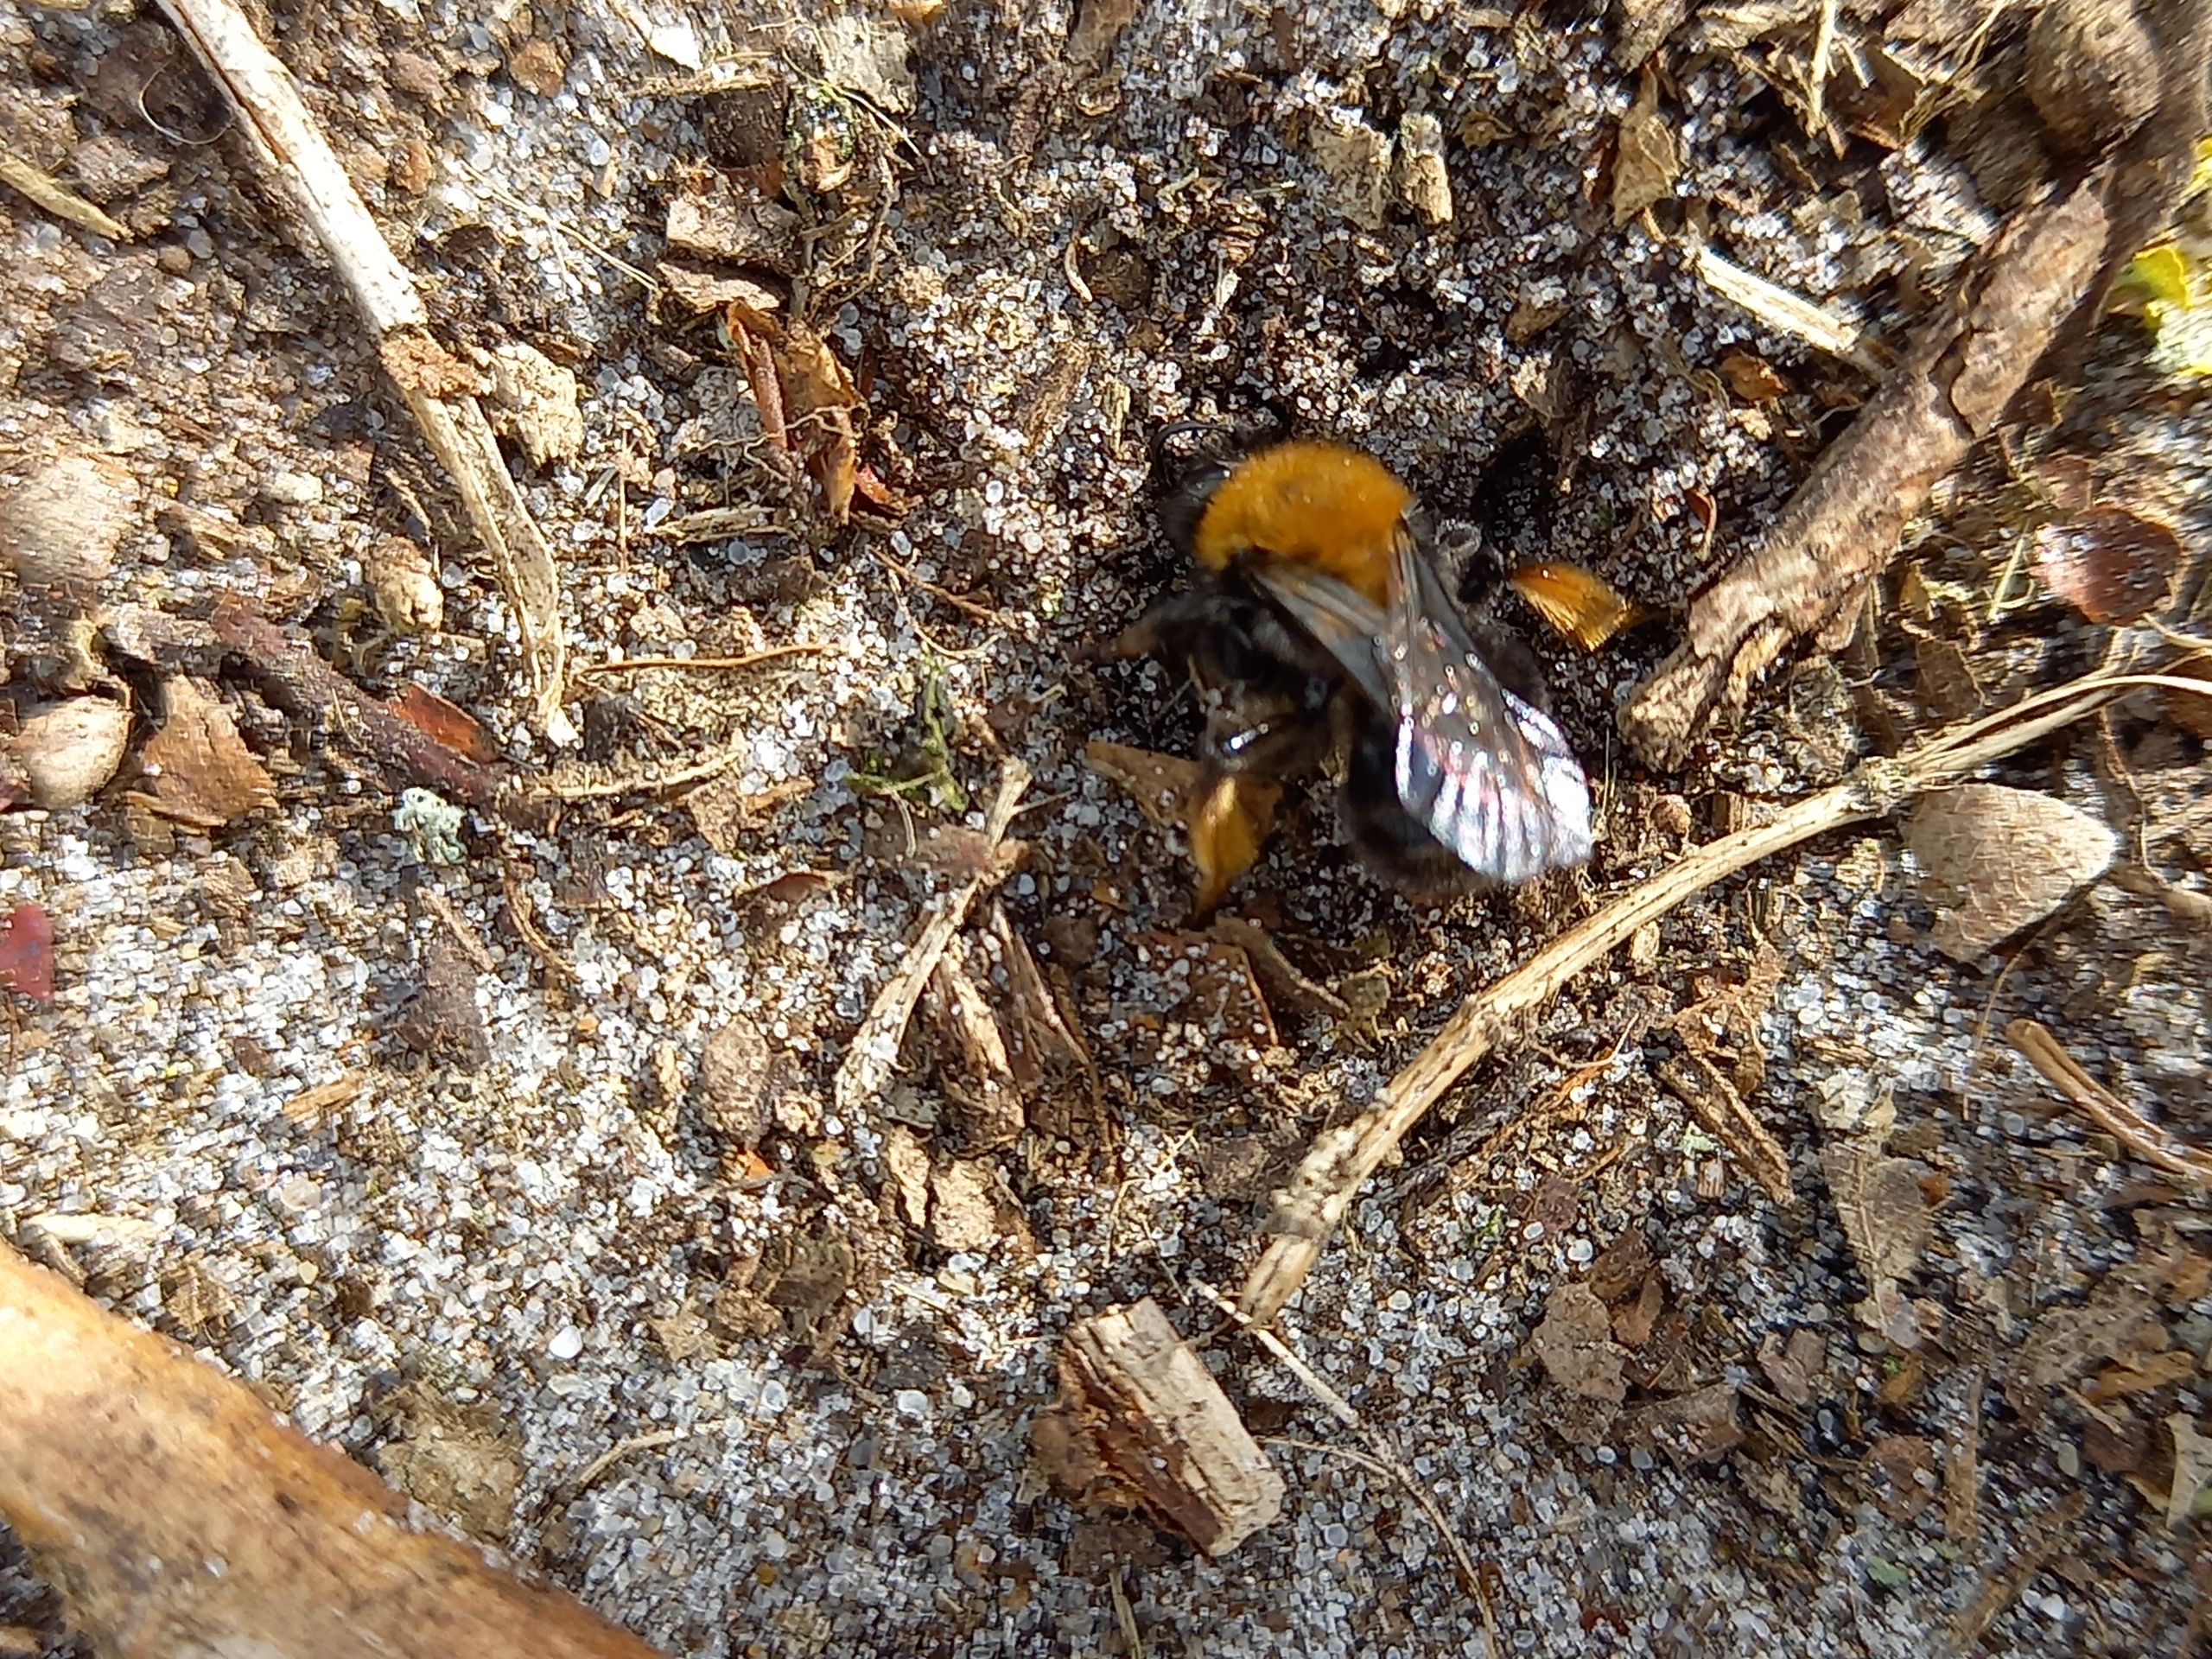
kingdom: Animalia
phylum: Arthropoda
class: Insecta
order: Hymenoptera
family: Andrenidae
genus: Andrena
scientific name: Andrena clarkella
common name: Rødbrystet jordbi
